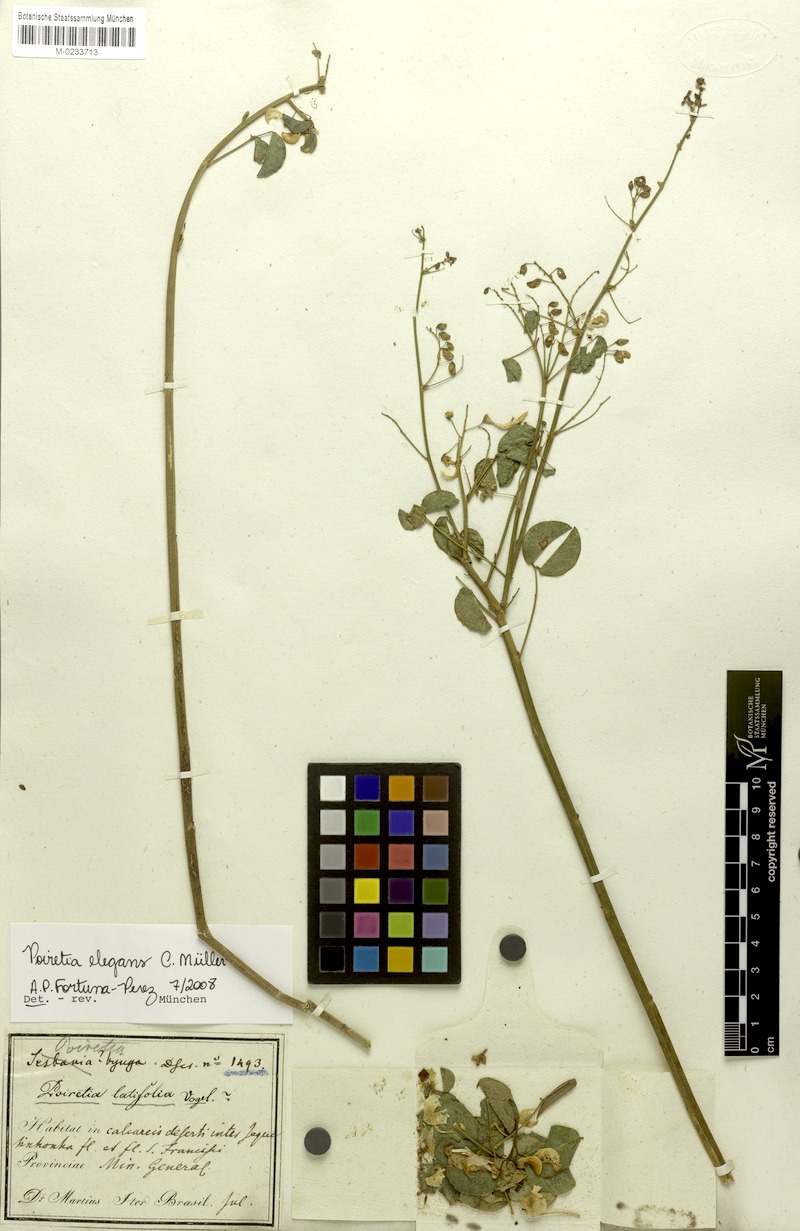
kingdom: Plantae
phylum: Tracheophyta
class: Magnoliopsida
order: Fabales
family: Fabaceae
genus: Poiretia
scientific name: Poiretia elegans
